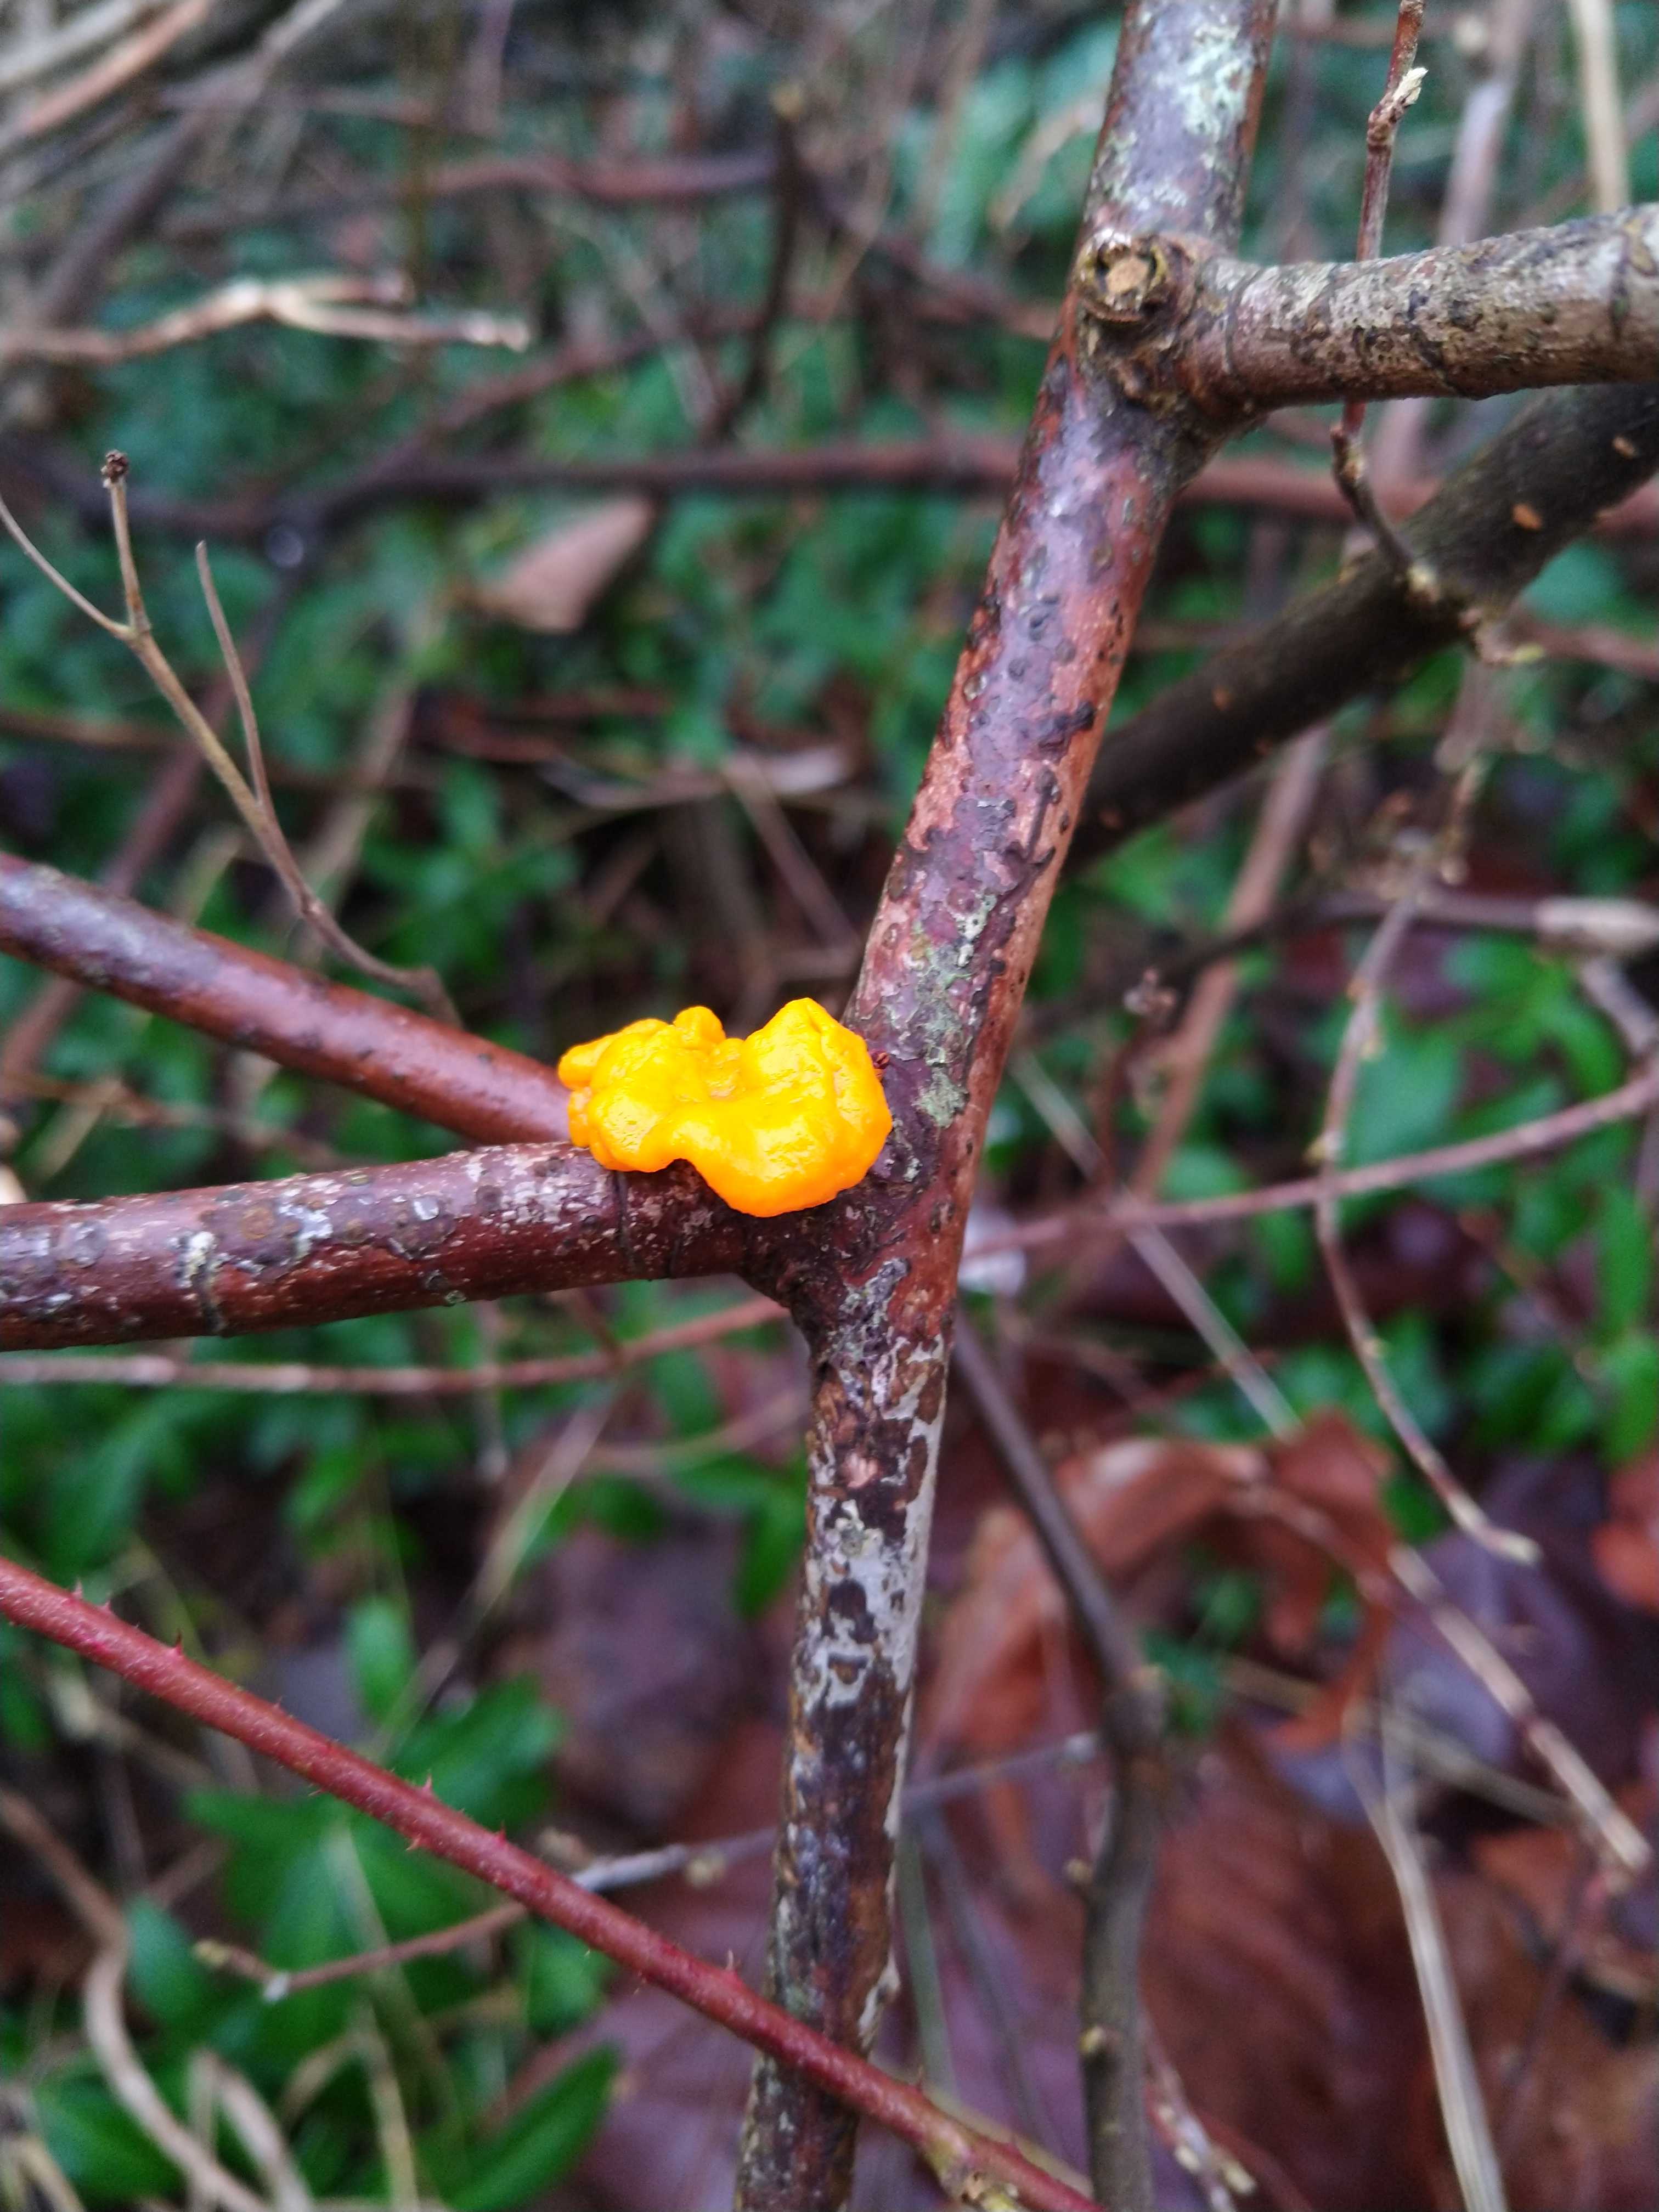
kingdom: Fungi
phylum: Basidiomycota
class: Tremellomycetes
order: Tremellales
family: Tremellaceae
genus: Tremella
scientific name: Tremella mesenterica
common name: gul bævresvamp
